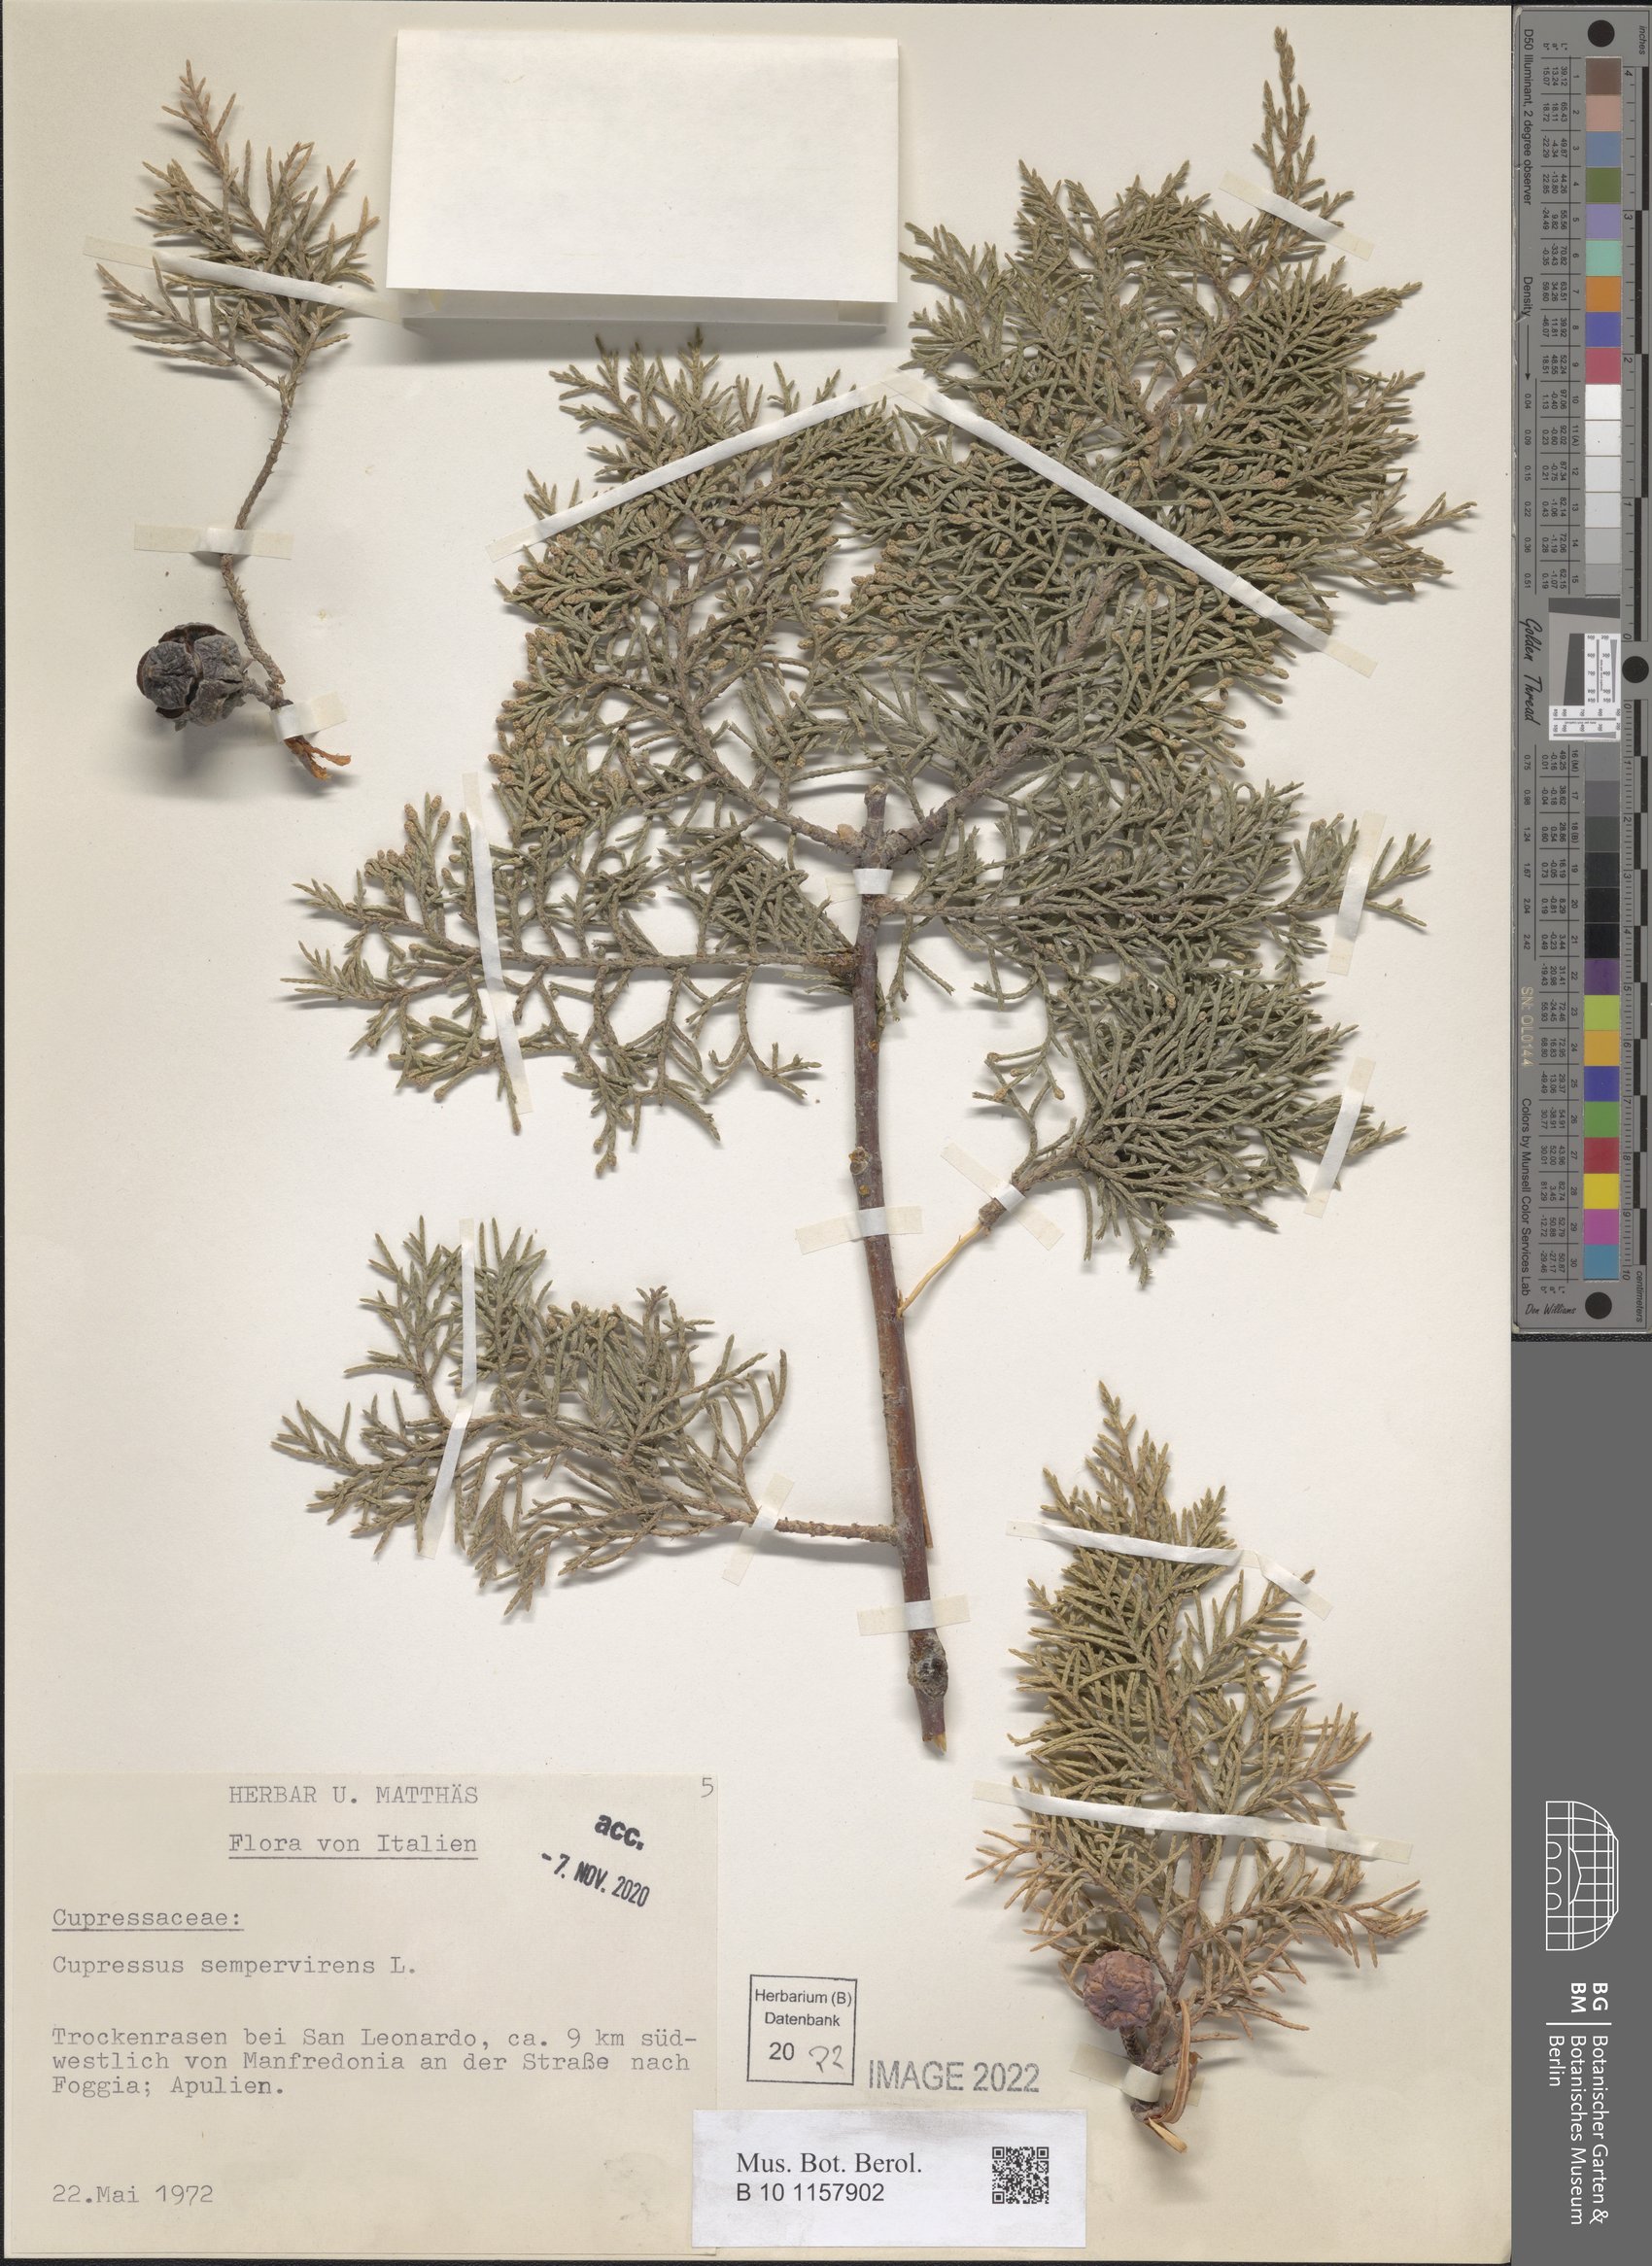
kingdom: Plantae
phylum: Tracheophyta
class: Pinopsida
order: Pinales
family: Cupressaceae
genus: Cupressus
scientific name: Cupressus sempervirens
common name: Italian cypress
